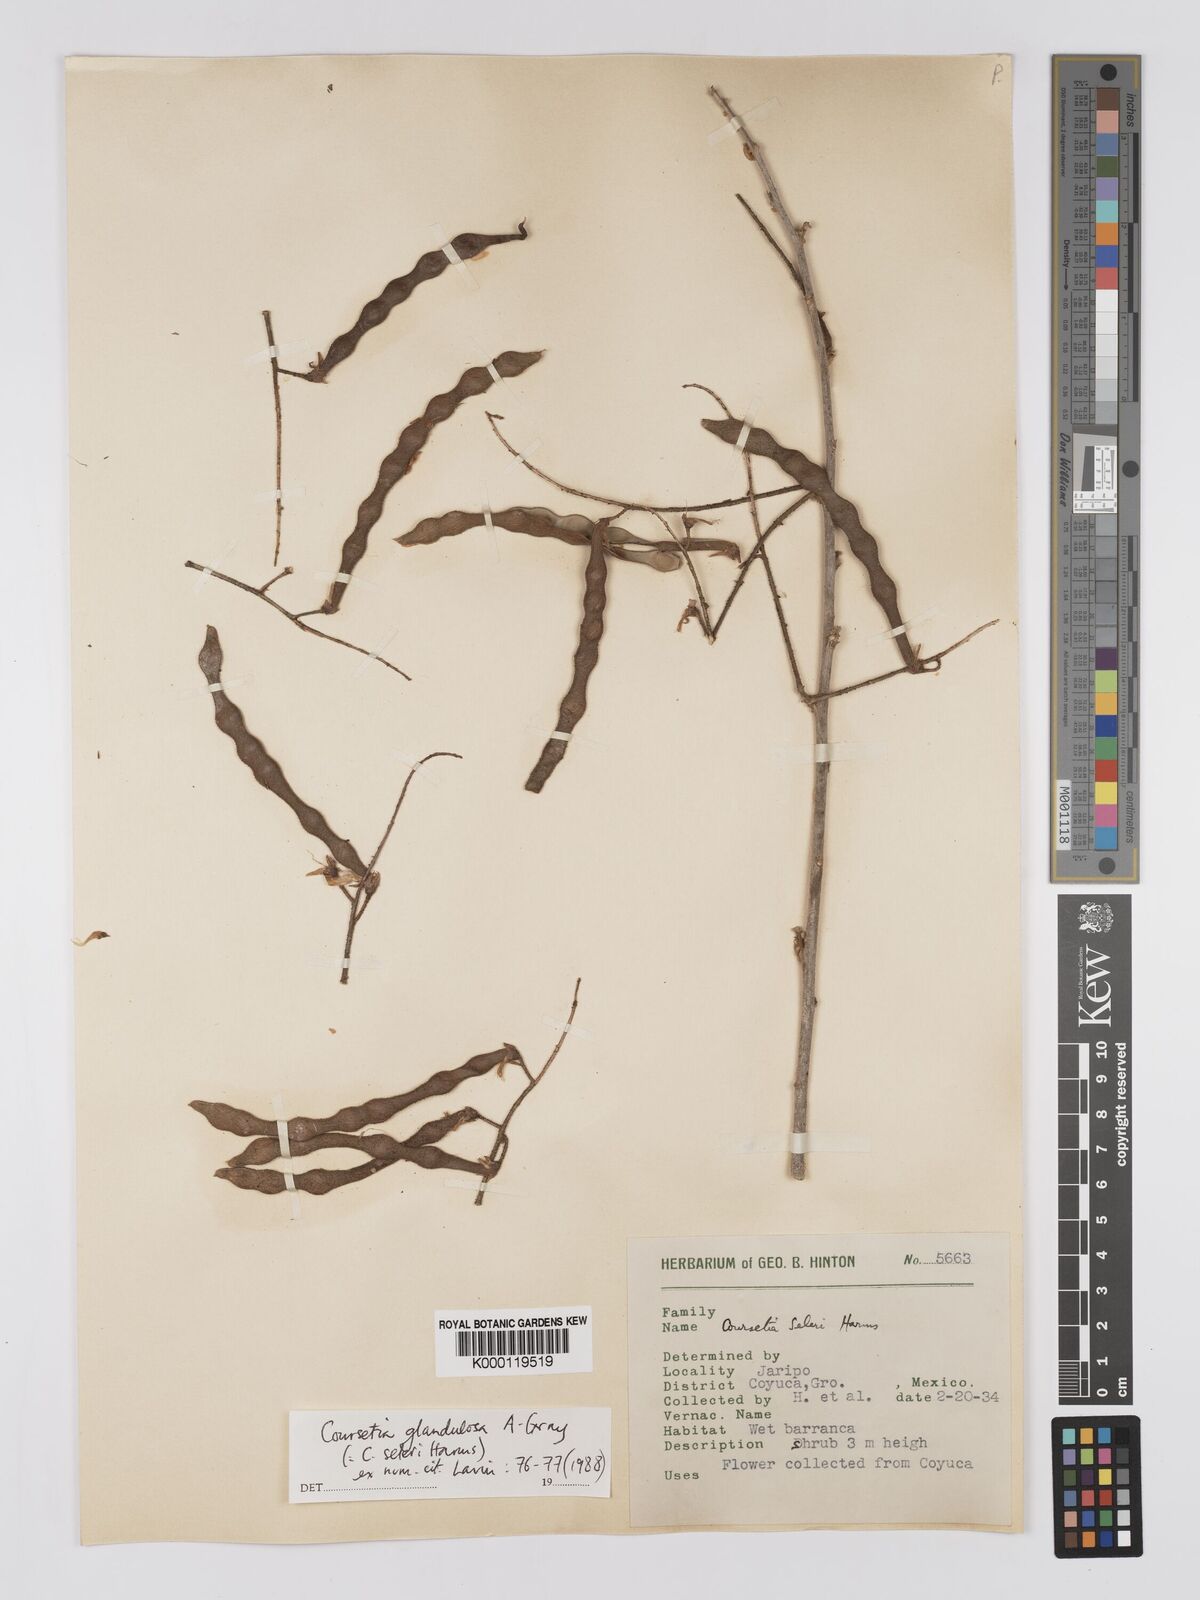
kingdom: Plantae
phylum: Tracheophyta
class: Magnoliopsida
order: Fabales
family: Fabaceae
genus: Coursetia
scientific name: Coursetia glandulosa
